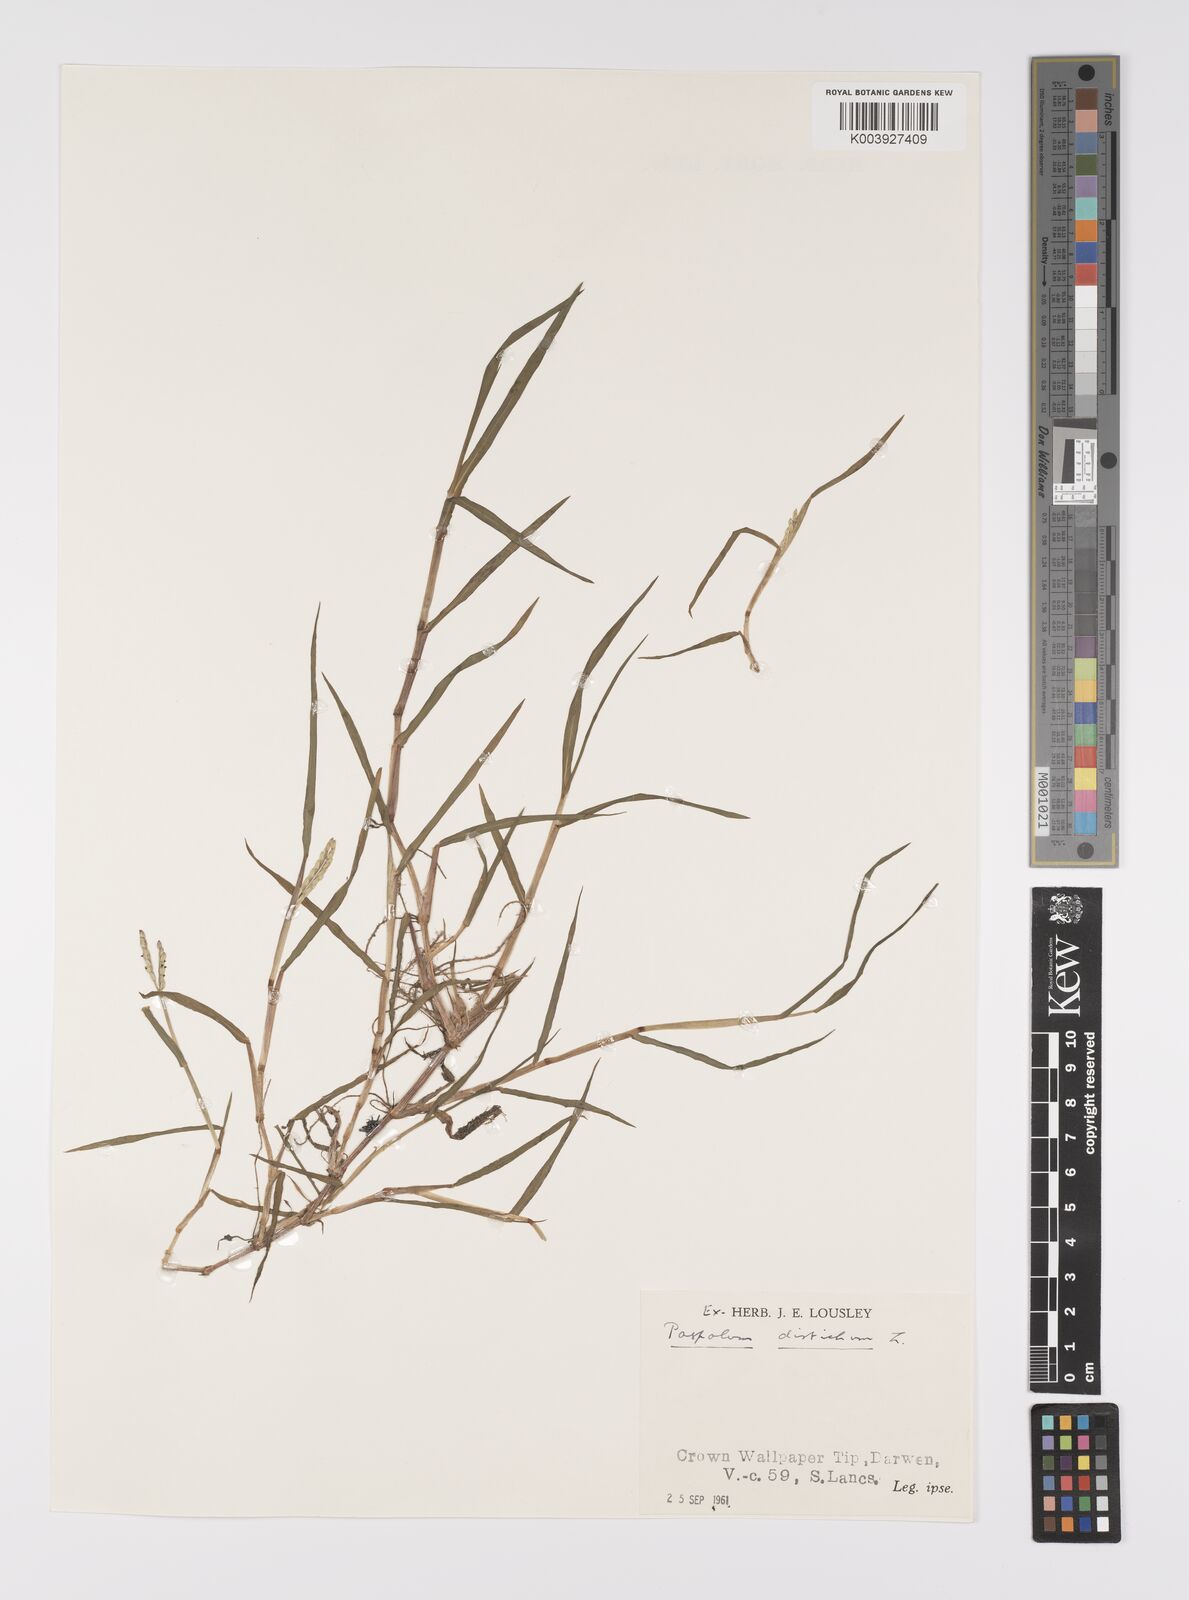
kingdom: Plantae
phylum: Tracheophyta
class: Liliopsida
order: Poales
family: Poaceae
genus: Paspalum
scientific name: Paspalum distichum
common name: Knotgrass
